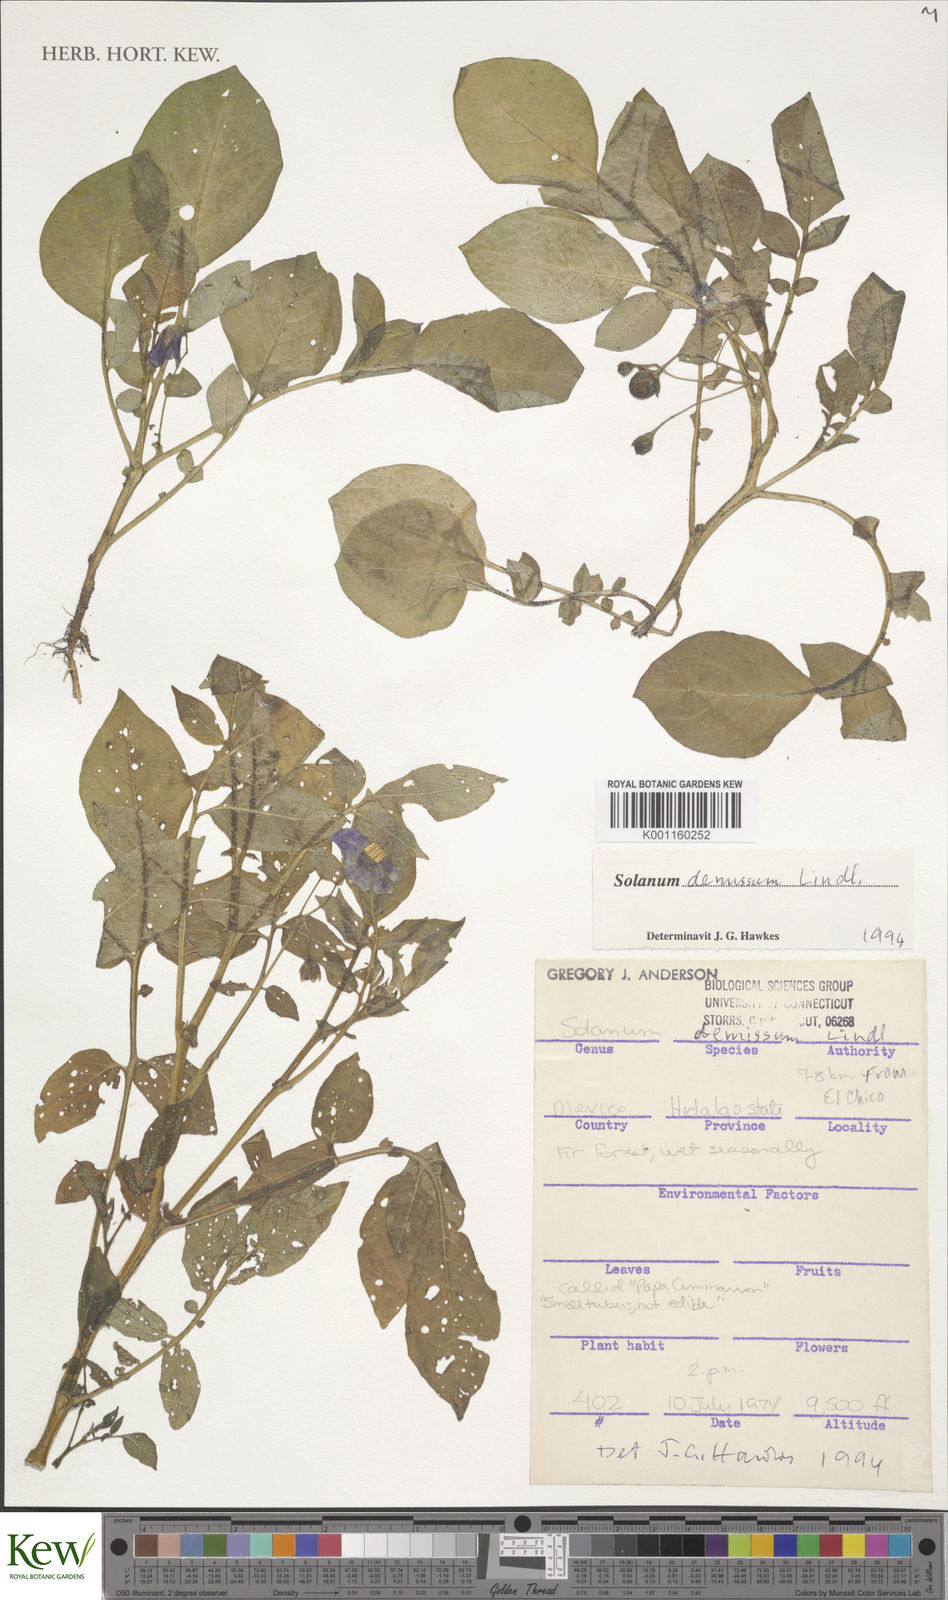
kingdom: Plantae
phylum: Tracheophyta
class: Magnoliopsida
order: Solanales
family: Solanaceae
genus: Solanum
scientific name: Solanum demissum
